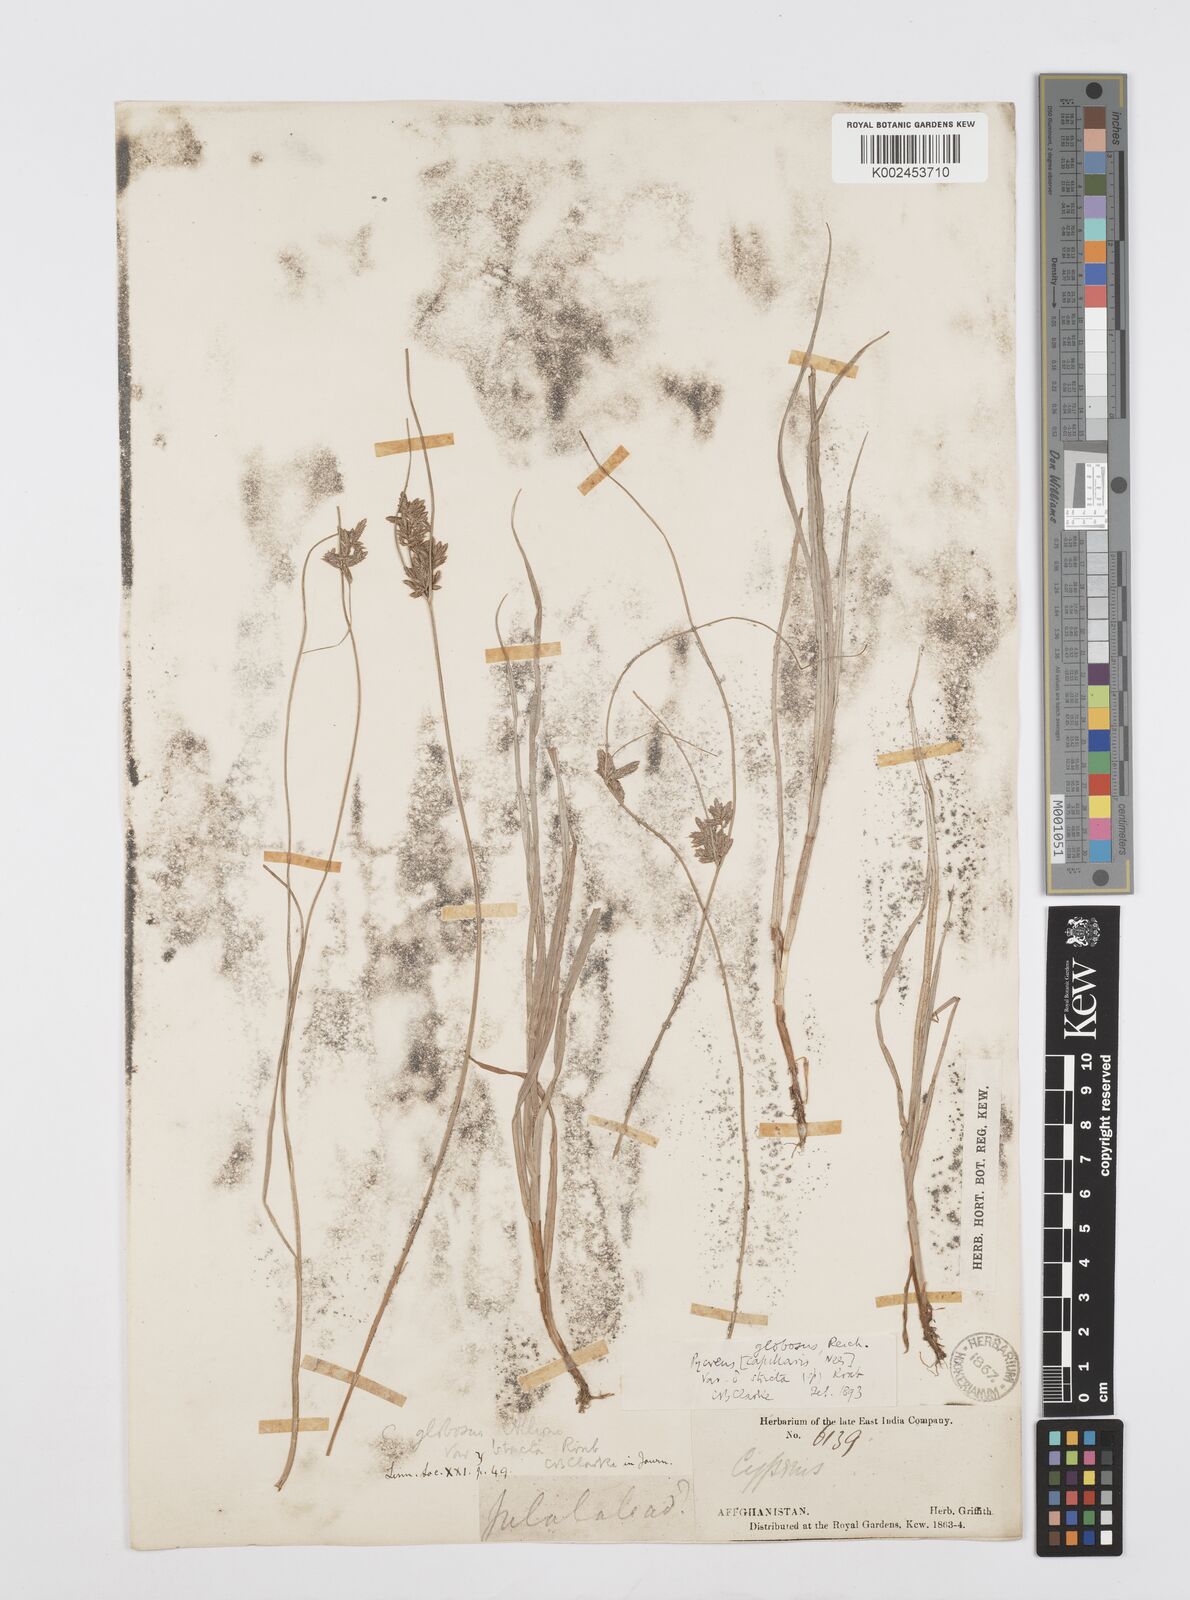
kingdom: Plantae
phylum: Tracheophyta
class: Liliopsida
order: Poales
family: Cyperaceae
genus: Cyperus
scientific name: Cyperus flavidus
